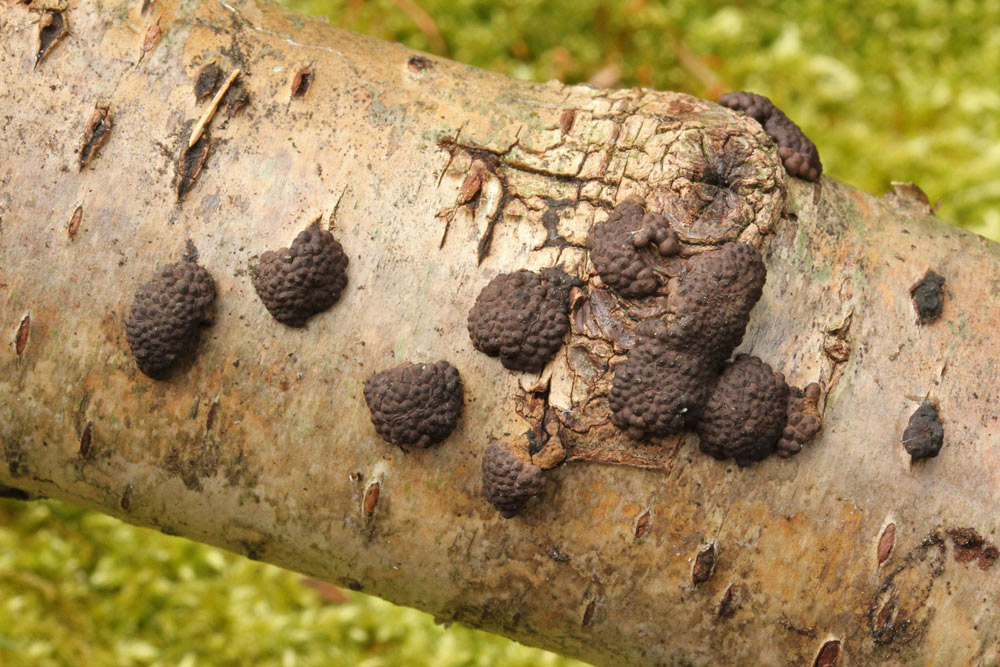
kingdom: Fungi
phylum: Ascomycota
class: Sordariomycetes
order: Xylariales
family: Hypoxylaceae
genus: Jackrogersella
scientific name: Jackrogersella multiformis
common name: foranderlig kulbær
